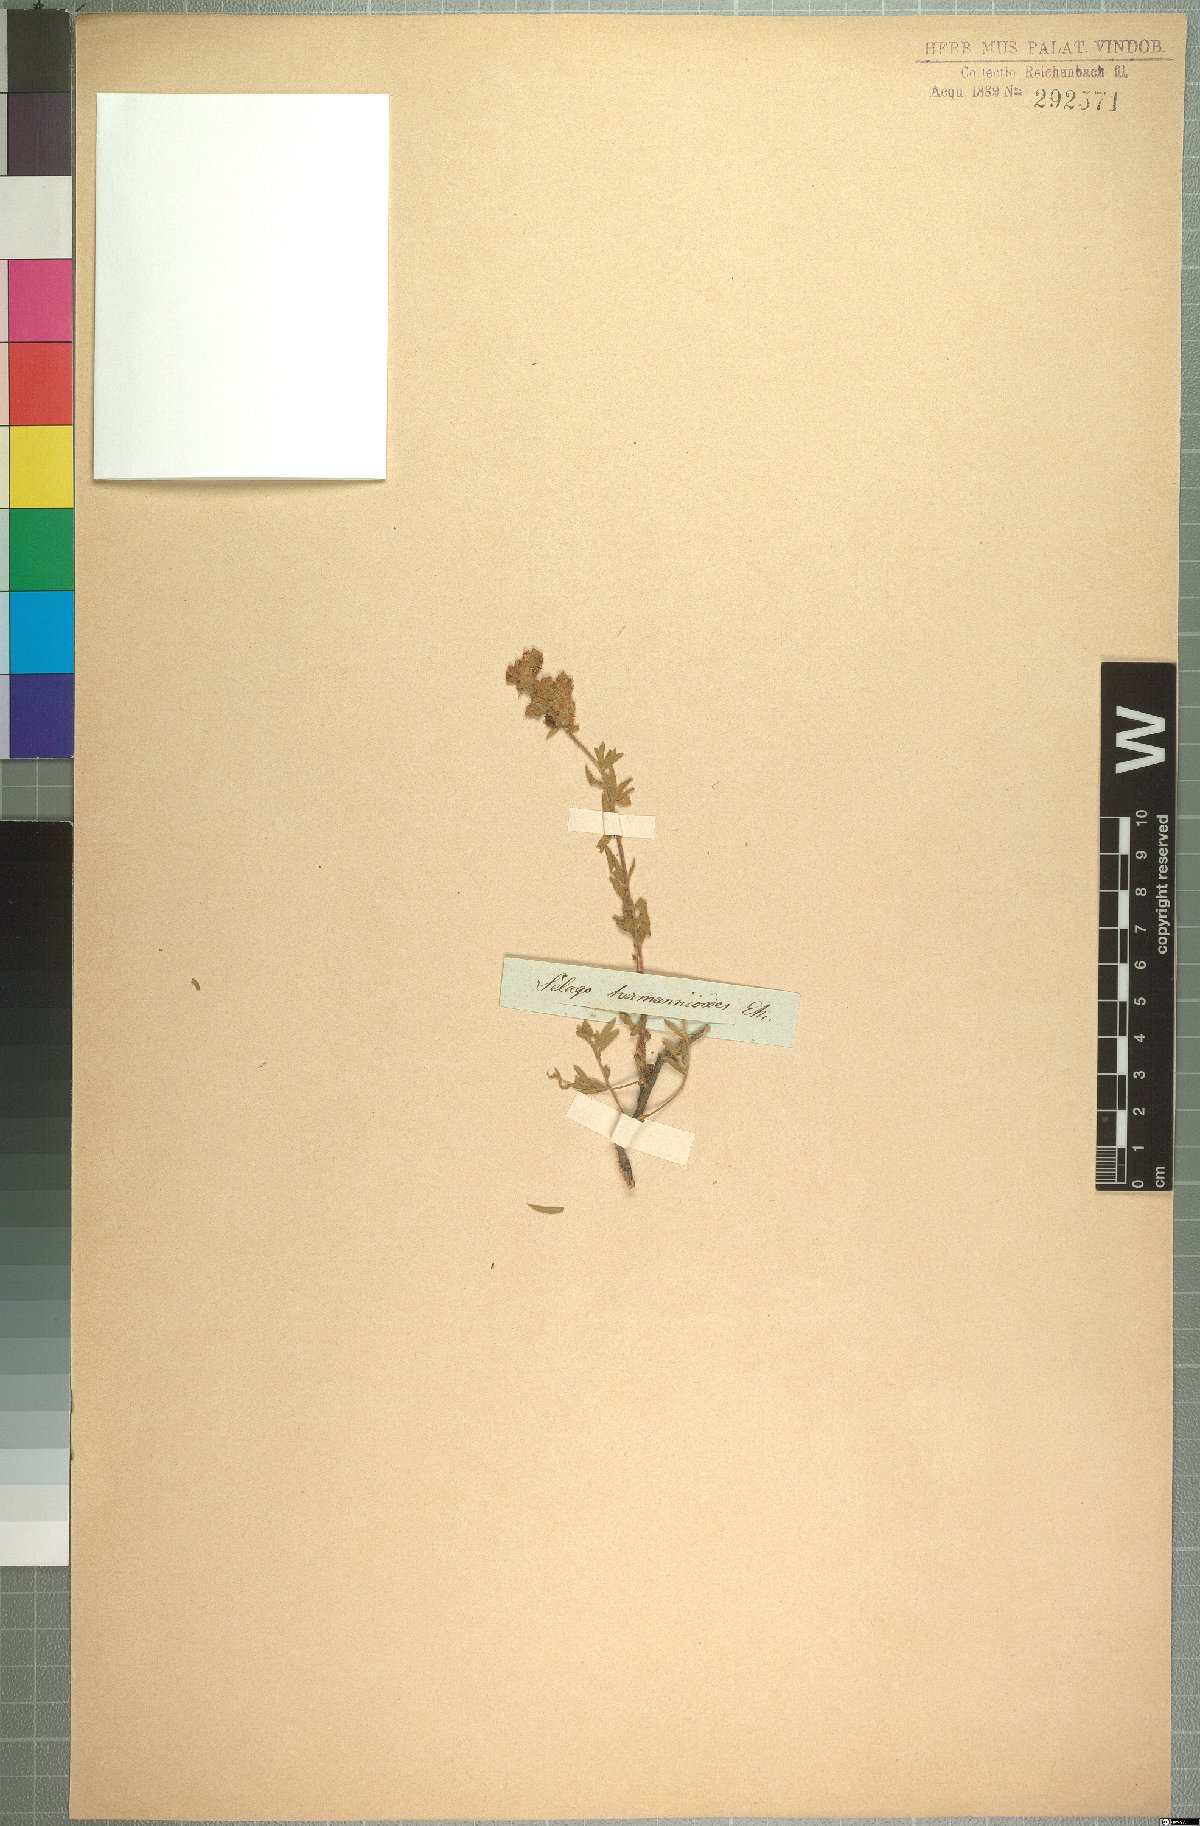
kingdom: Plantae
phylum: Tracheophyta
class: Magnoliopsida
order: Lamiales
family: Scrophulariaceae
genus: Selago
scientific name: Selago hermannioides
